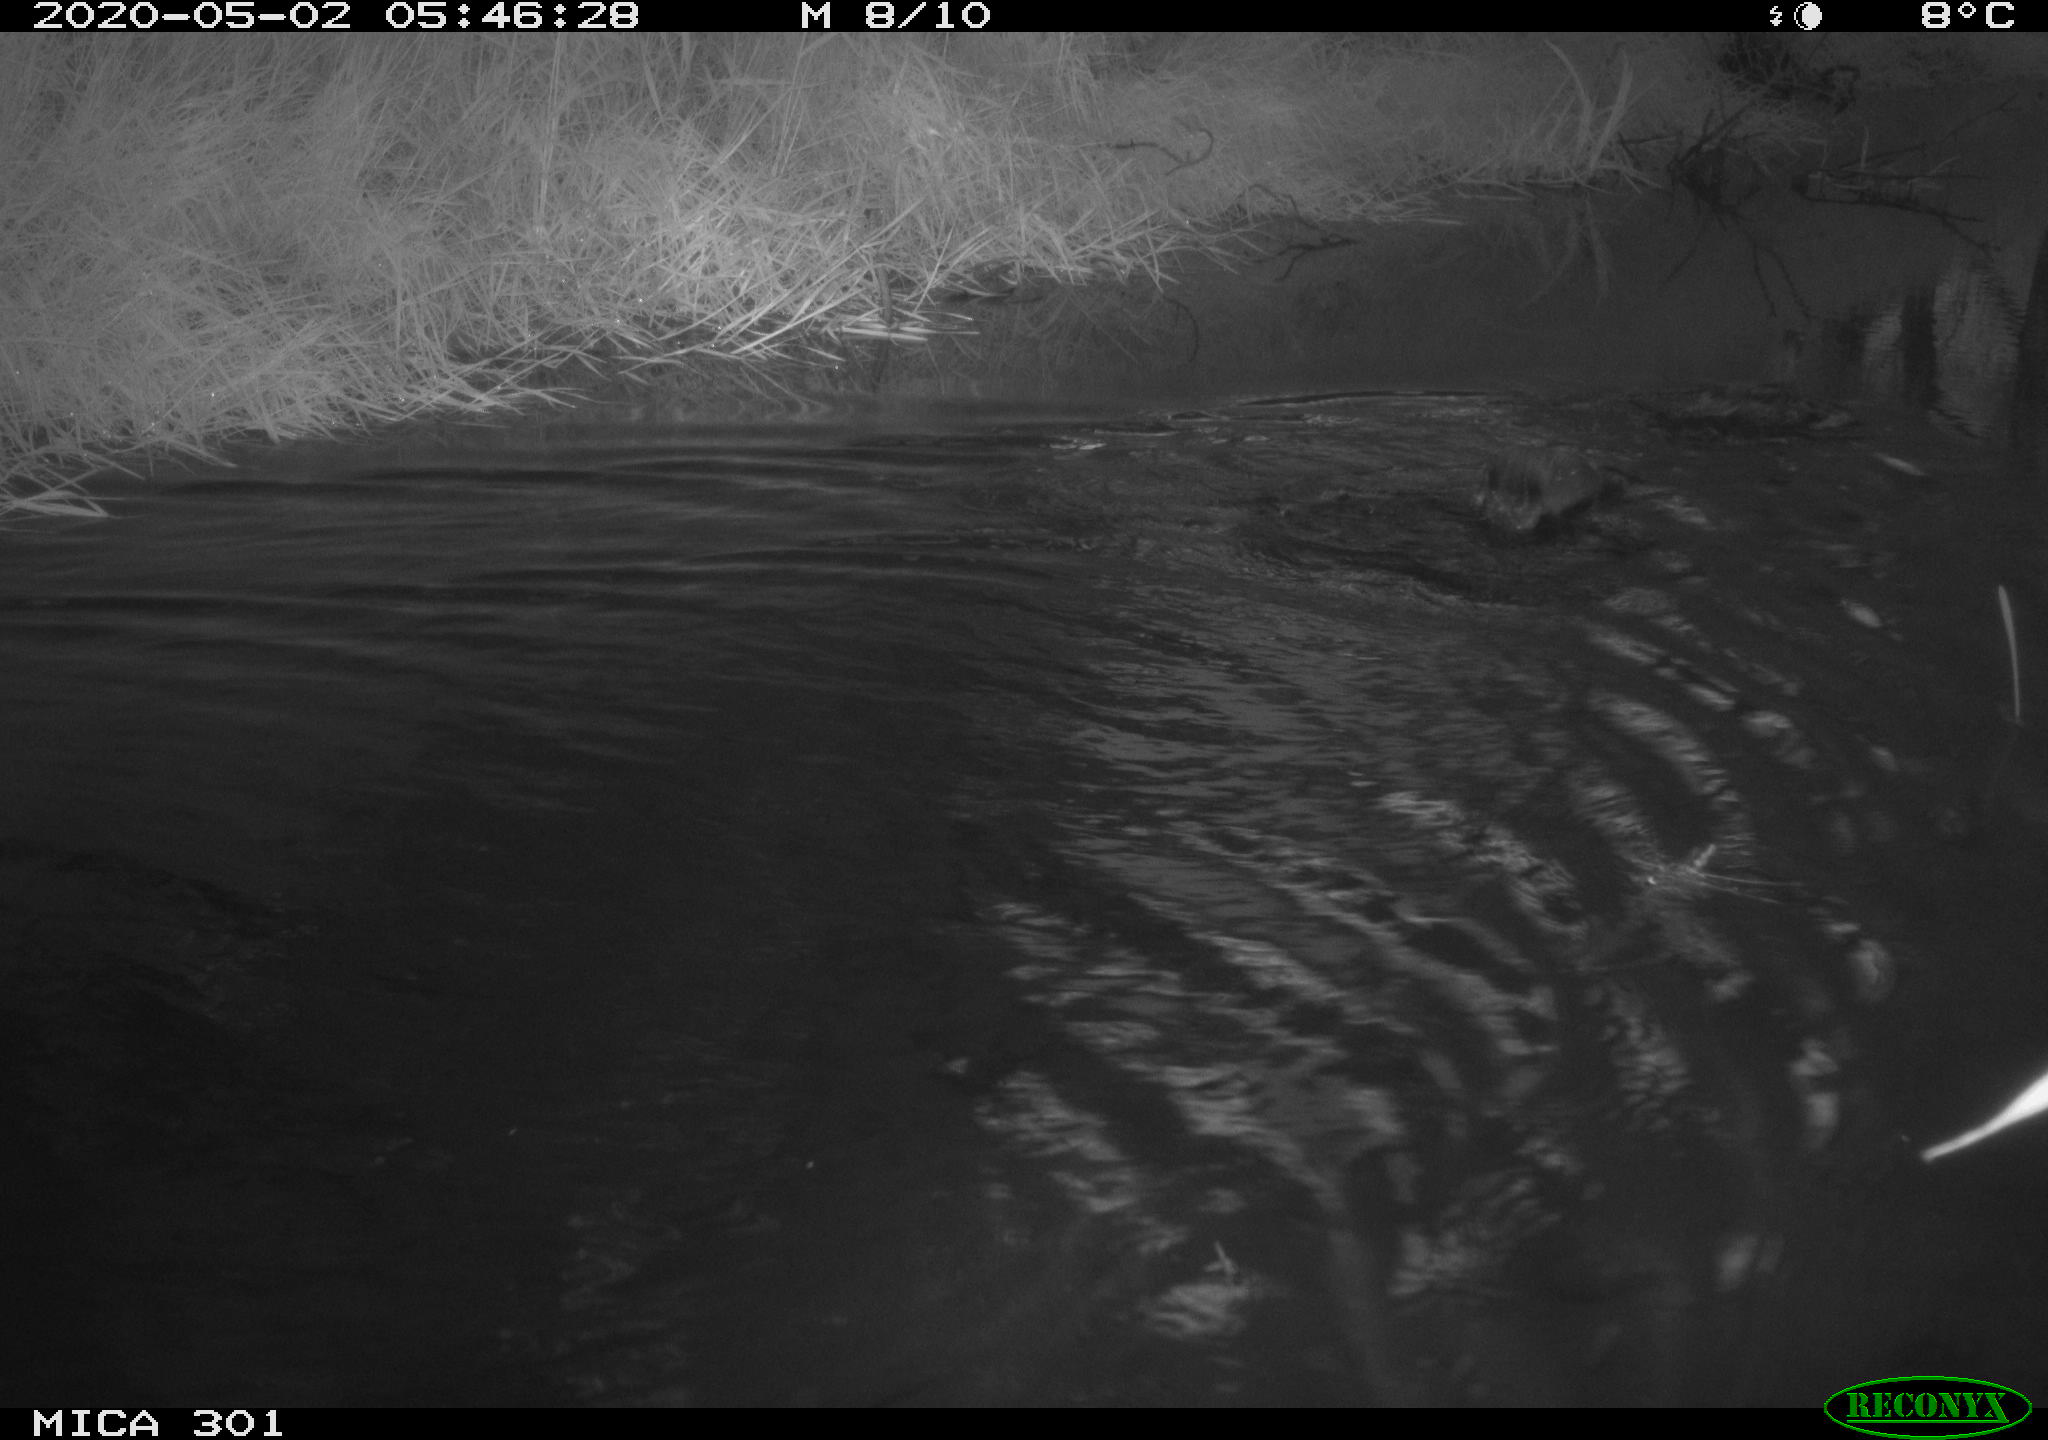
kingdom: Animalia
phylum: Chordata
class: Aves
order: Anseriformes
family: Anatidae
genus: Mareca
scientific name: Mareca strepera
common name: Gadwall
